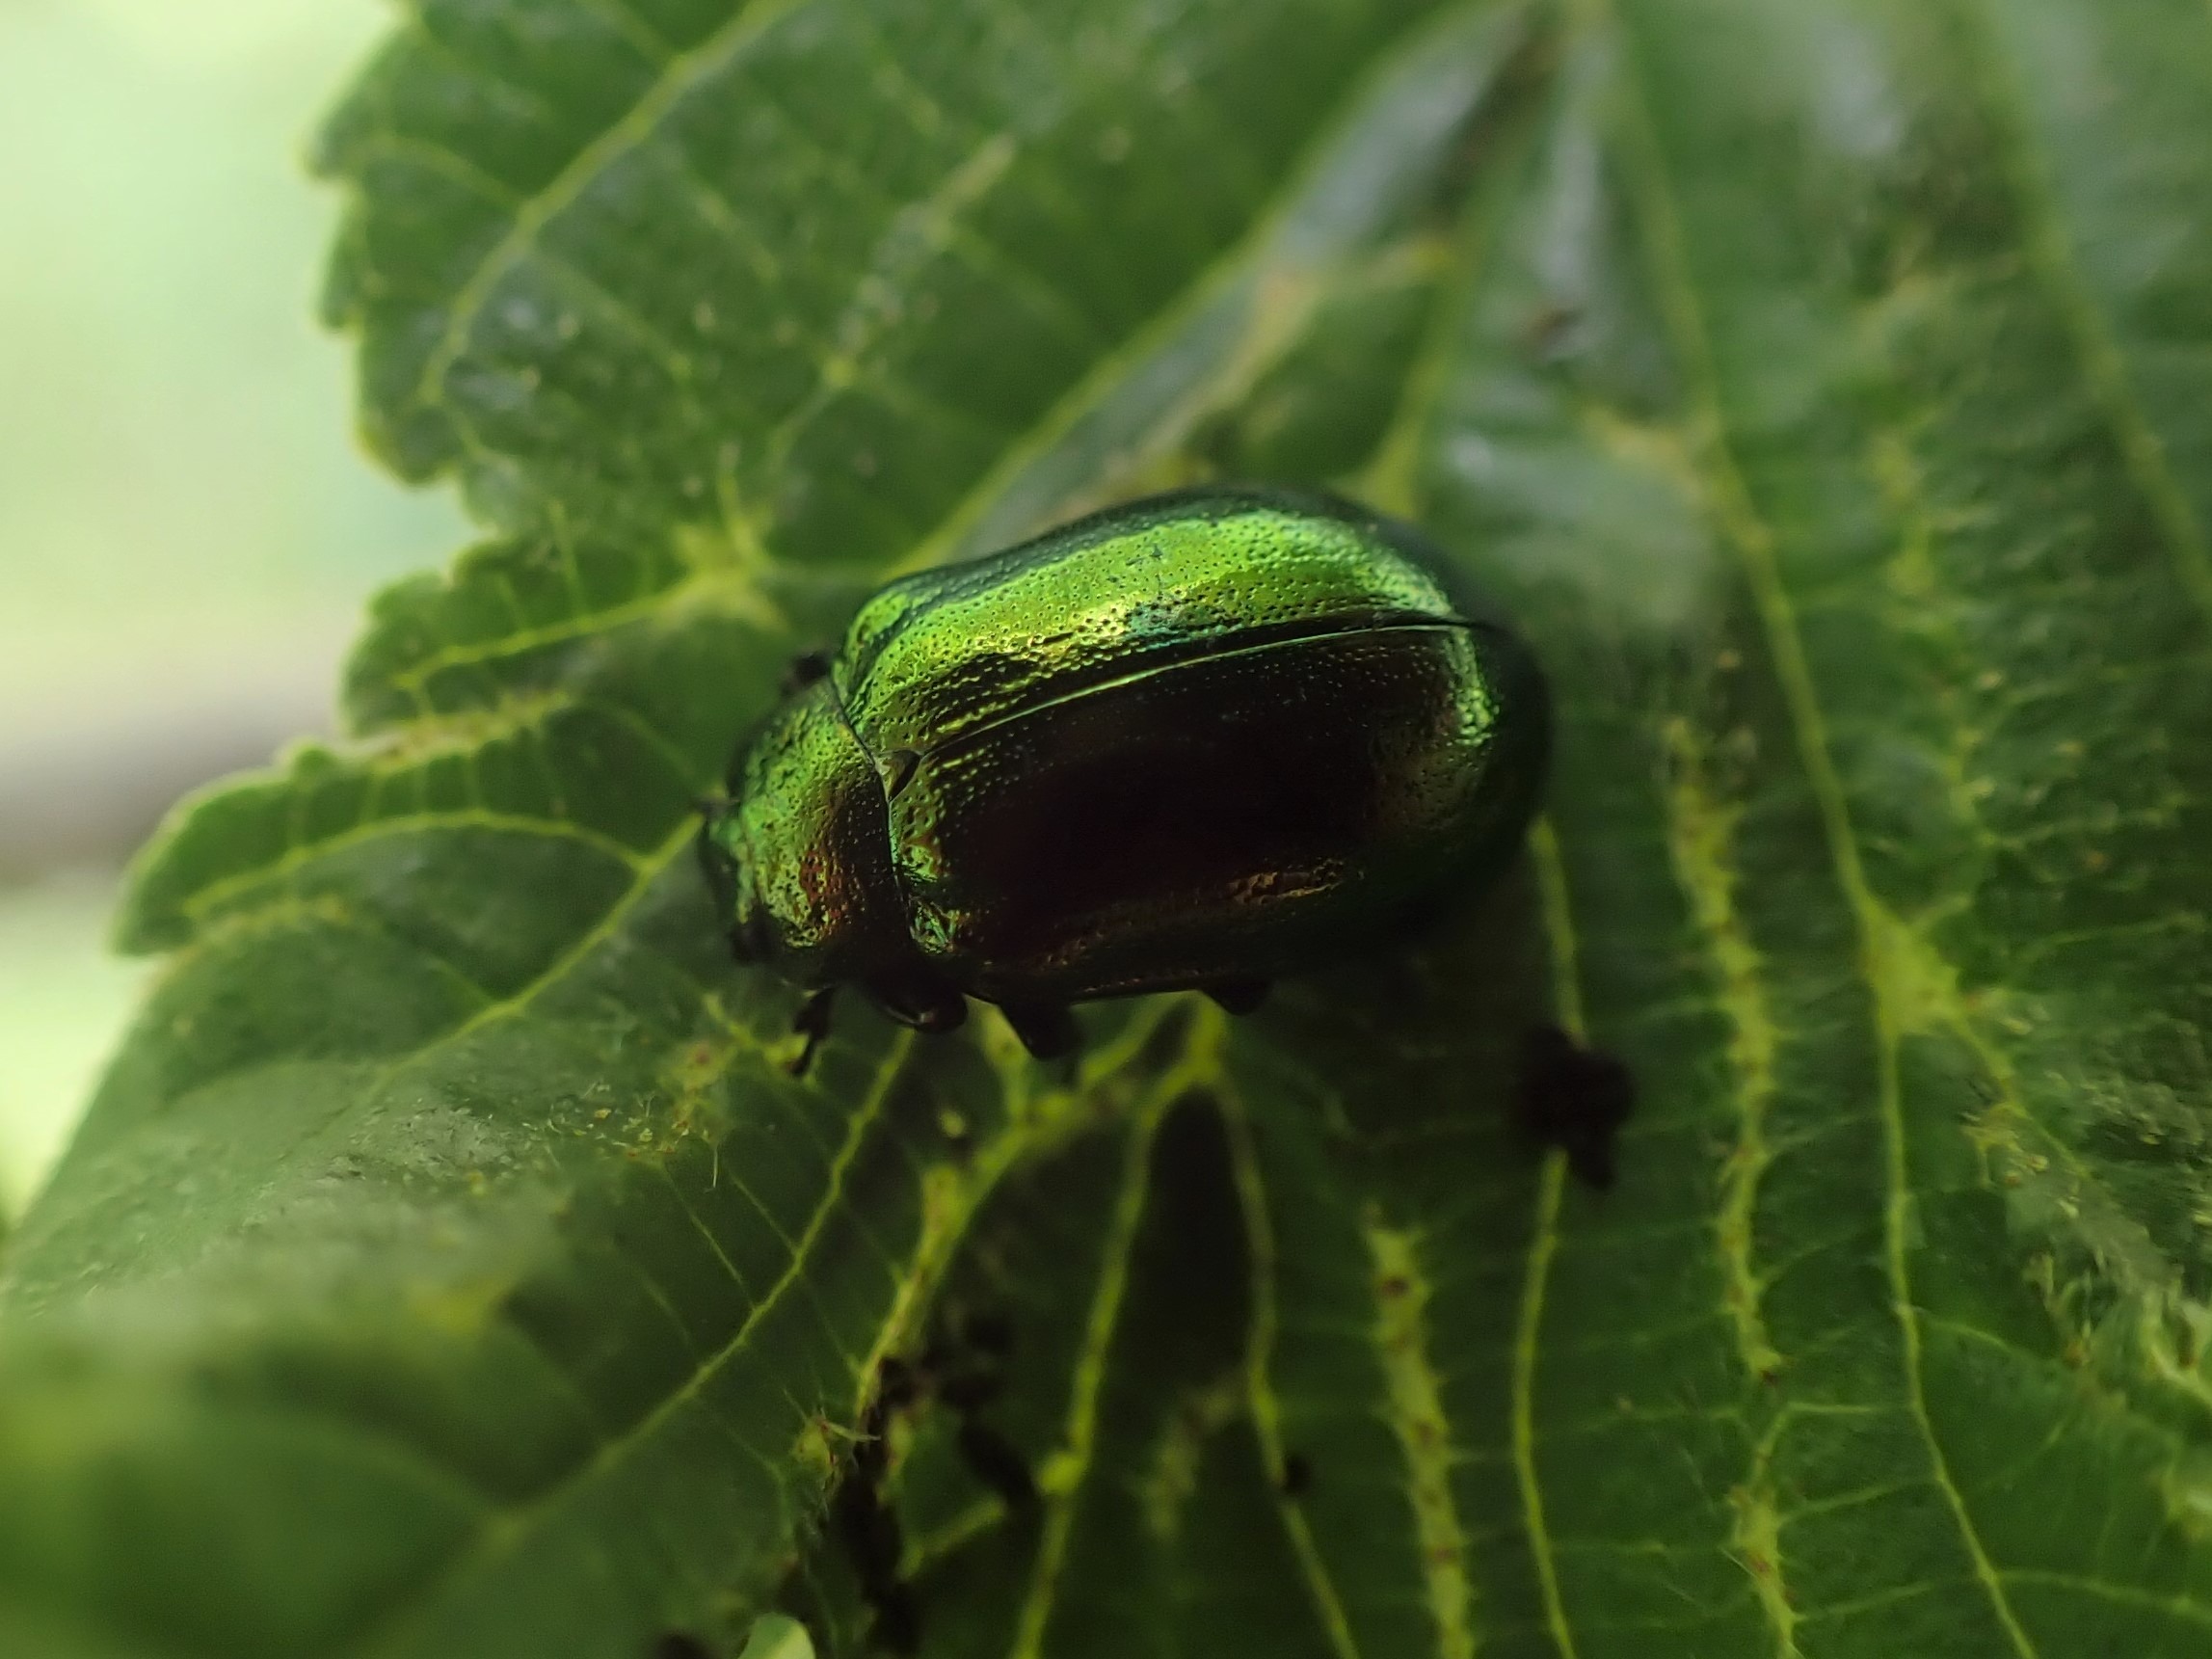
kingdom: Animalia
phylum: Arthropoda
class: Insecta
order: Coleoptera
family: Chrysomelidae
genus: Plagiosterna
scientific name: Plagiosterna aenea
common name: Blågrøn ellebladbille
